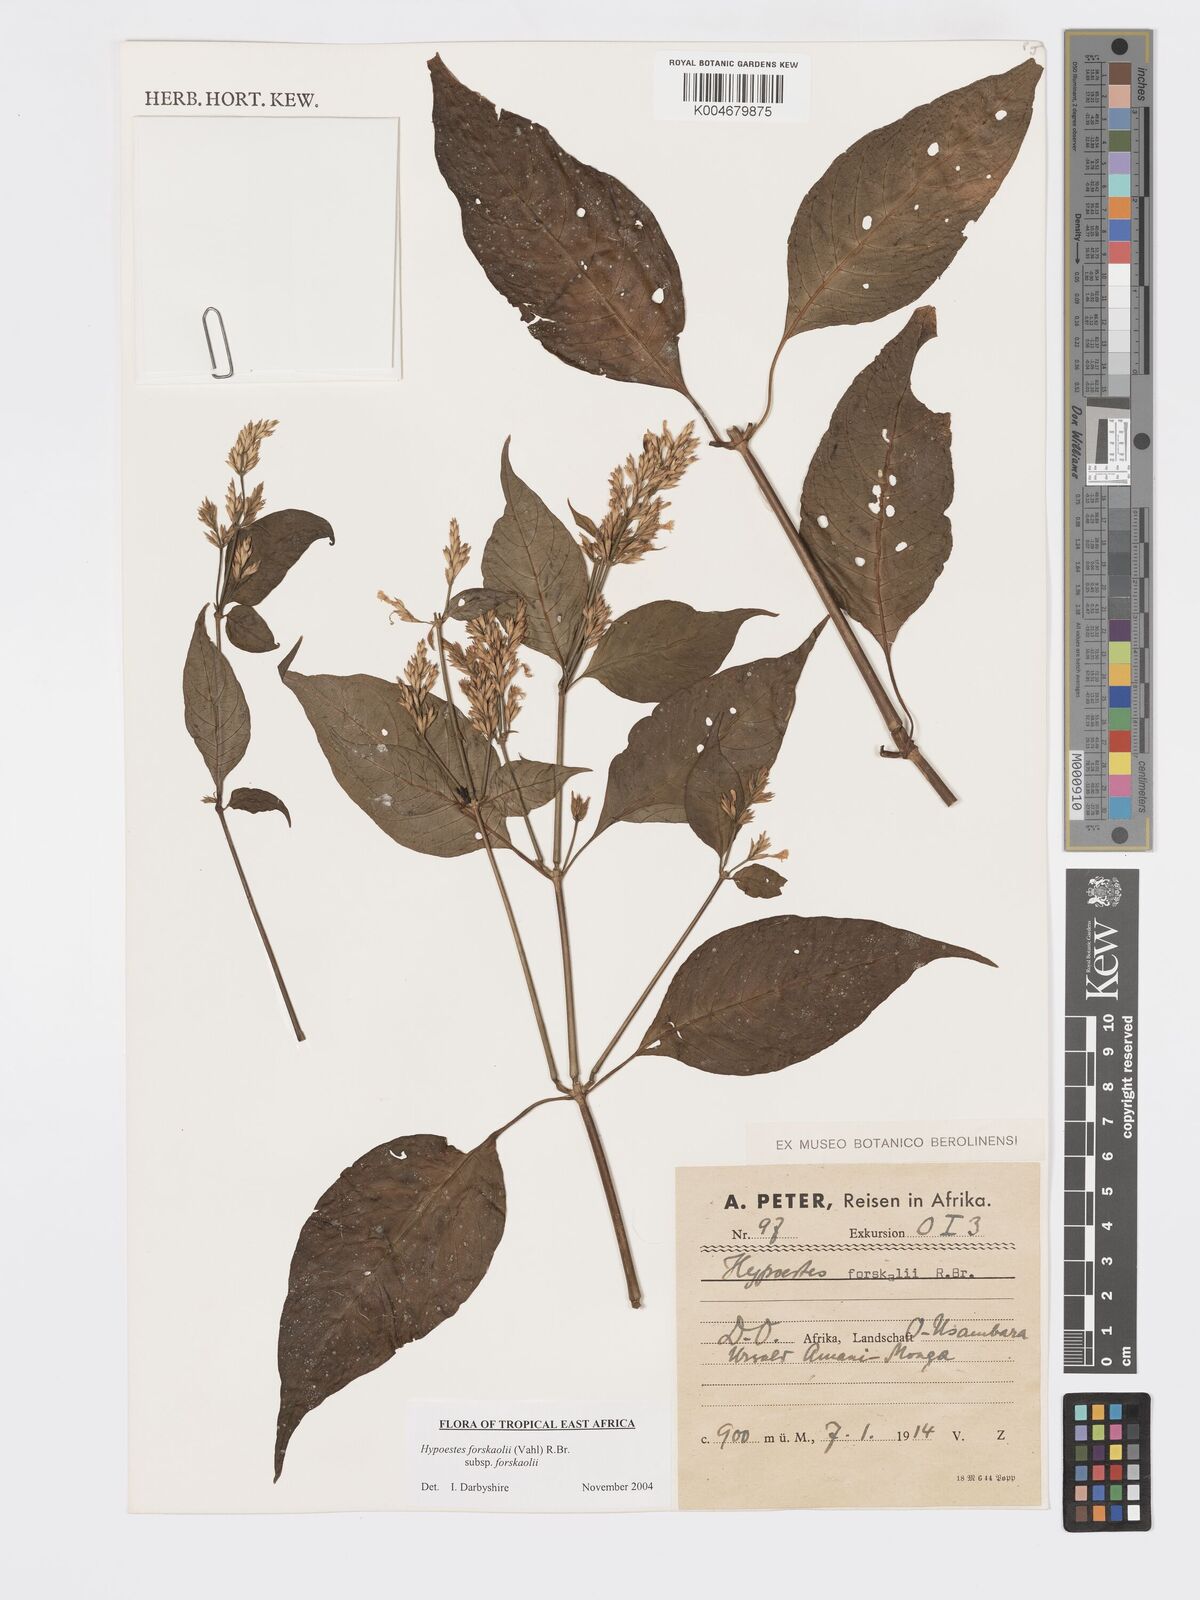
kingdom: Plantae
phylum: Tracheophyta
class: Magnoliopsida
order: Lamiales
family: Acanthaceae
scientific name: Acanthaceae
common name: Acanthaceae
